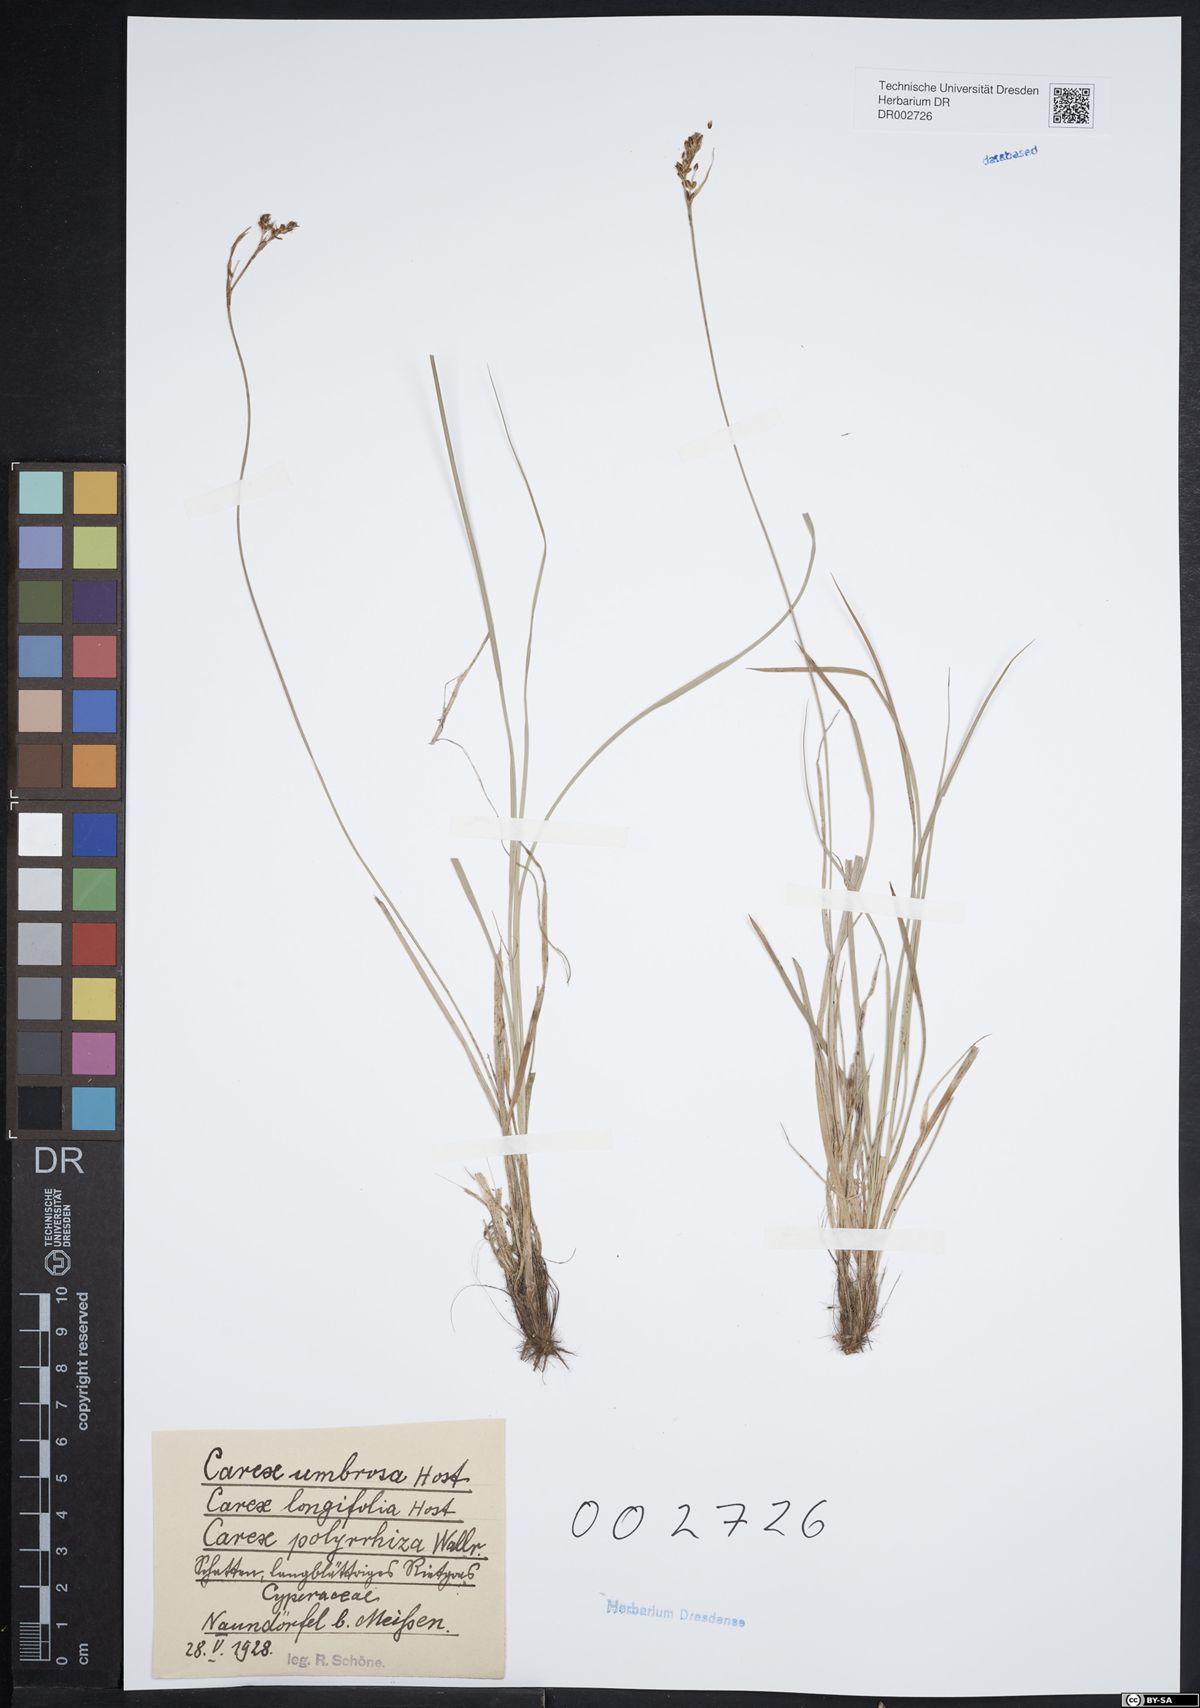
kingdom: Plantae
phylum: Tracheophyta
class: Liliopsida
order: Poales
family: Cyperaceae
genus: Carex
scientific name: Carex umbrosa
